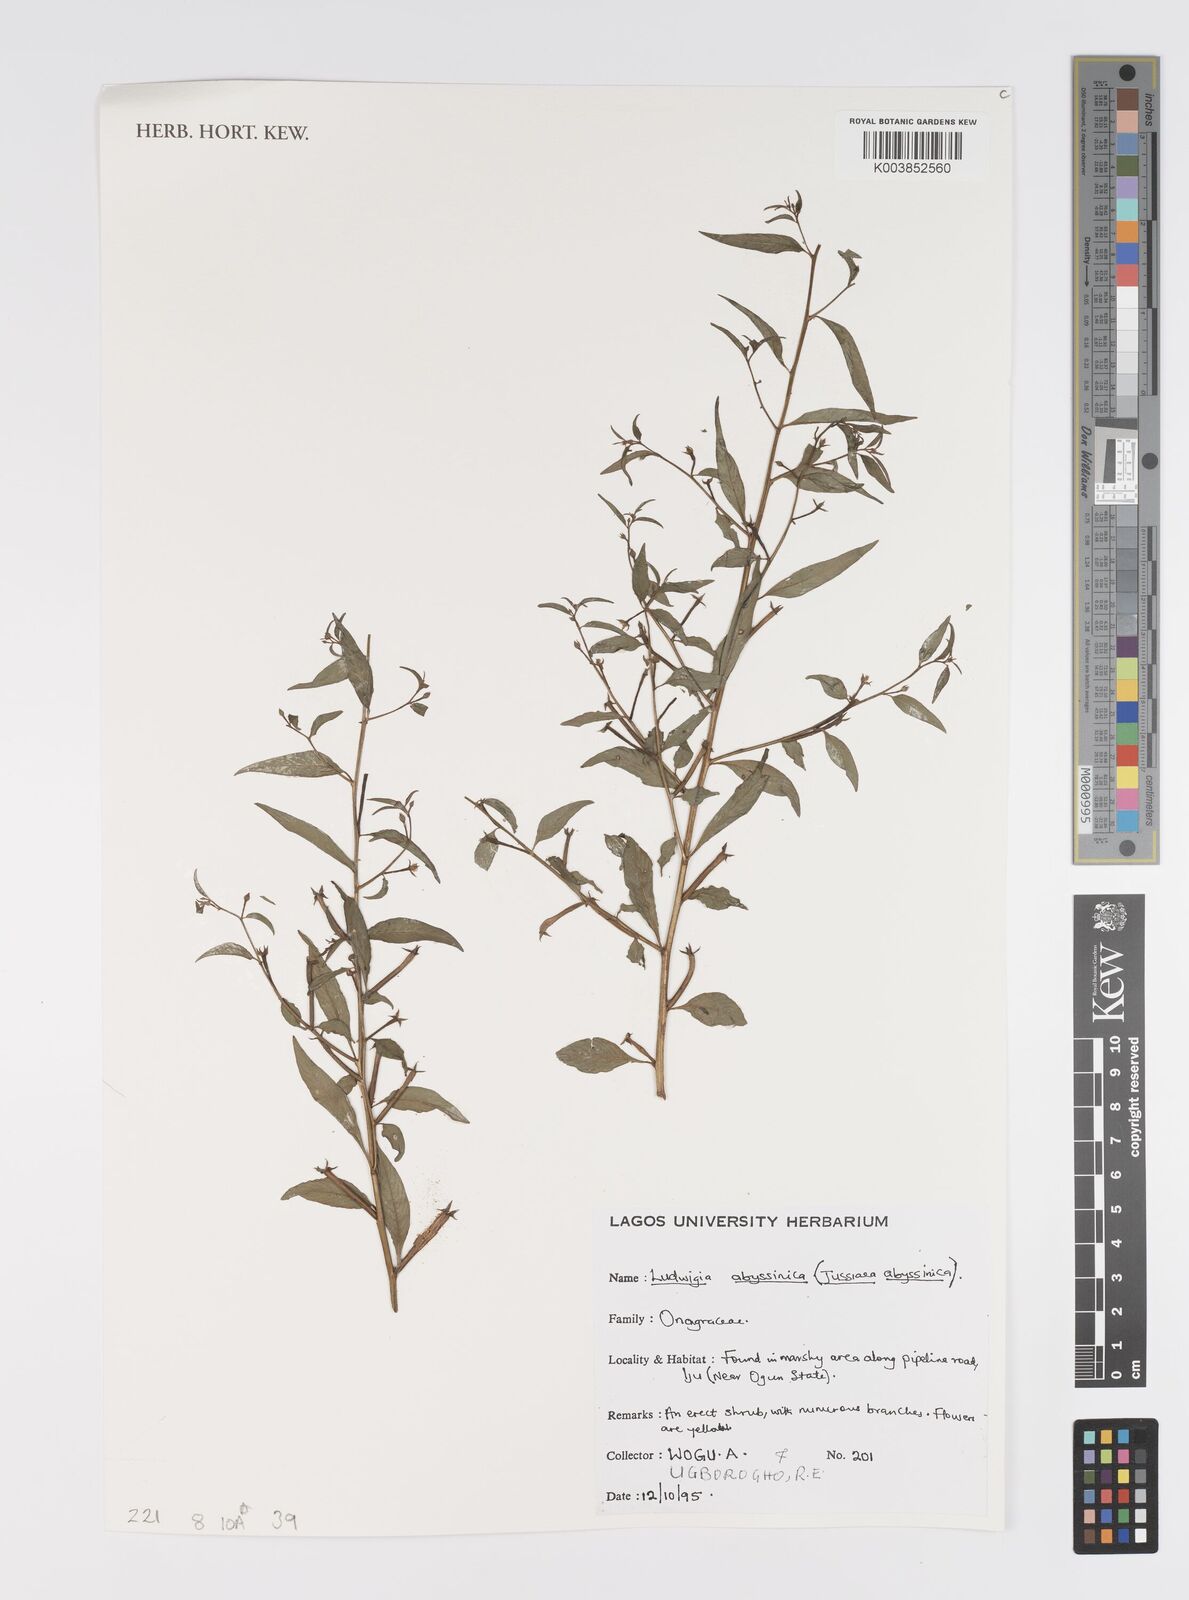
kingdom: Plantae
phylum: Tracheophyta
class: Magnoliopsida
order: Myrtales
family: Onagraceae
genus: Ludwigia
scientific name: Ludwigia abyssinica
